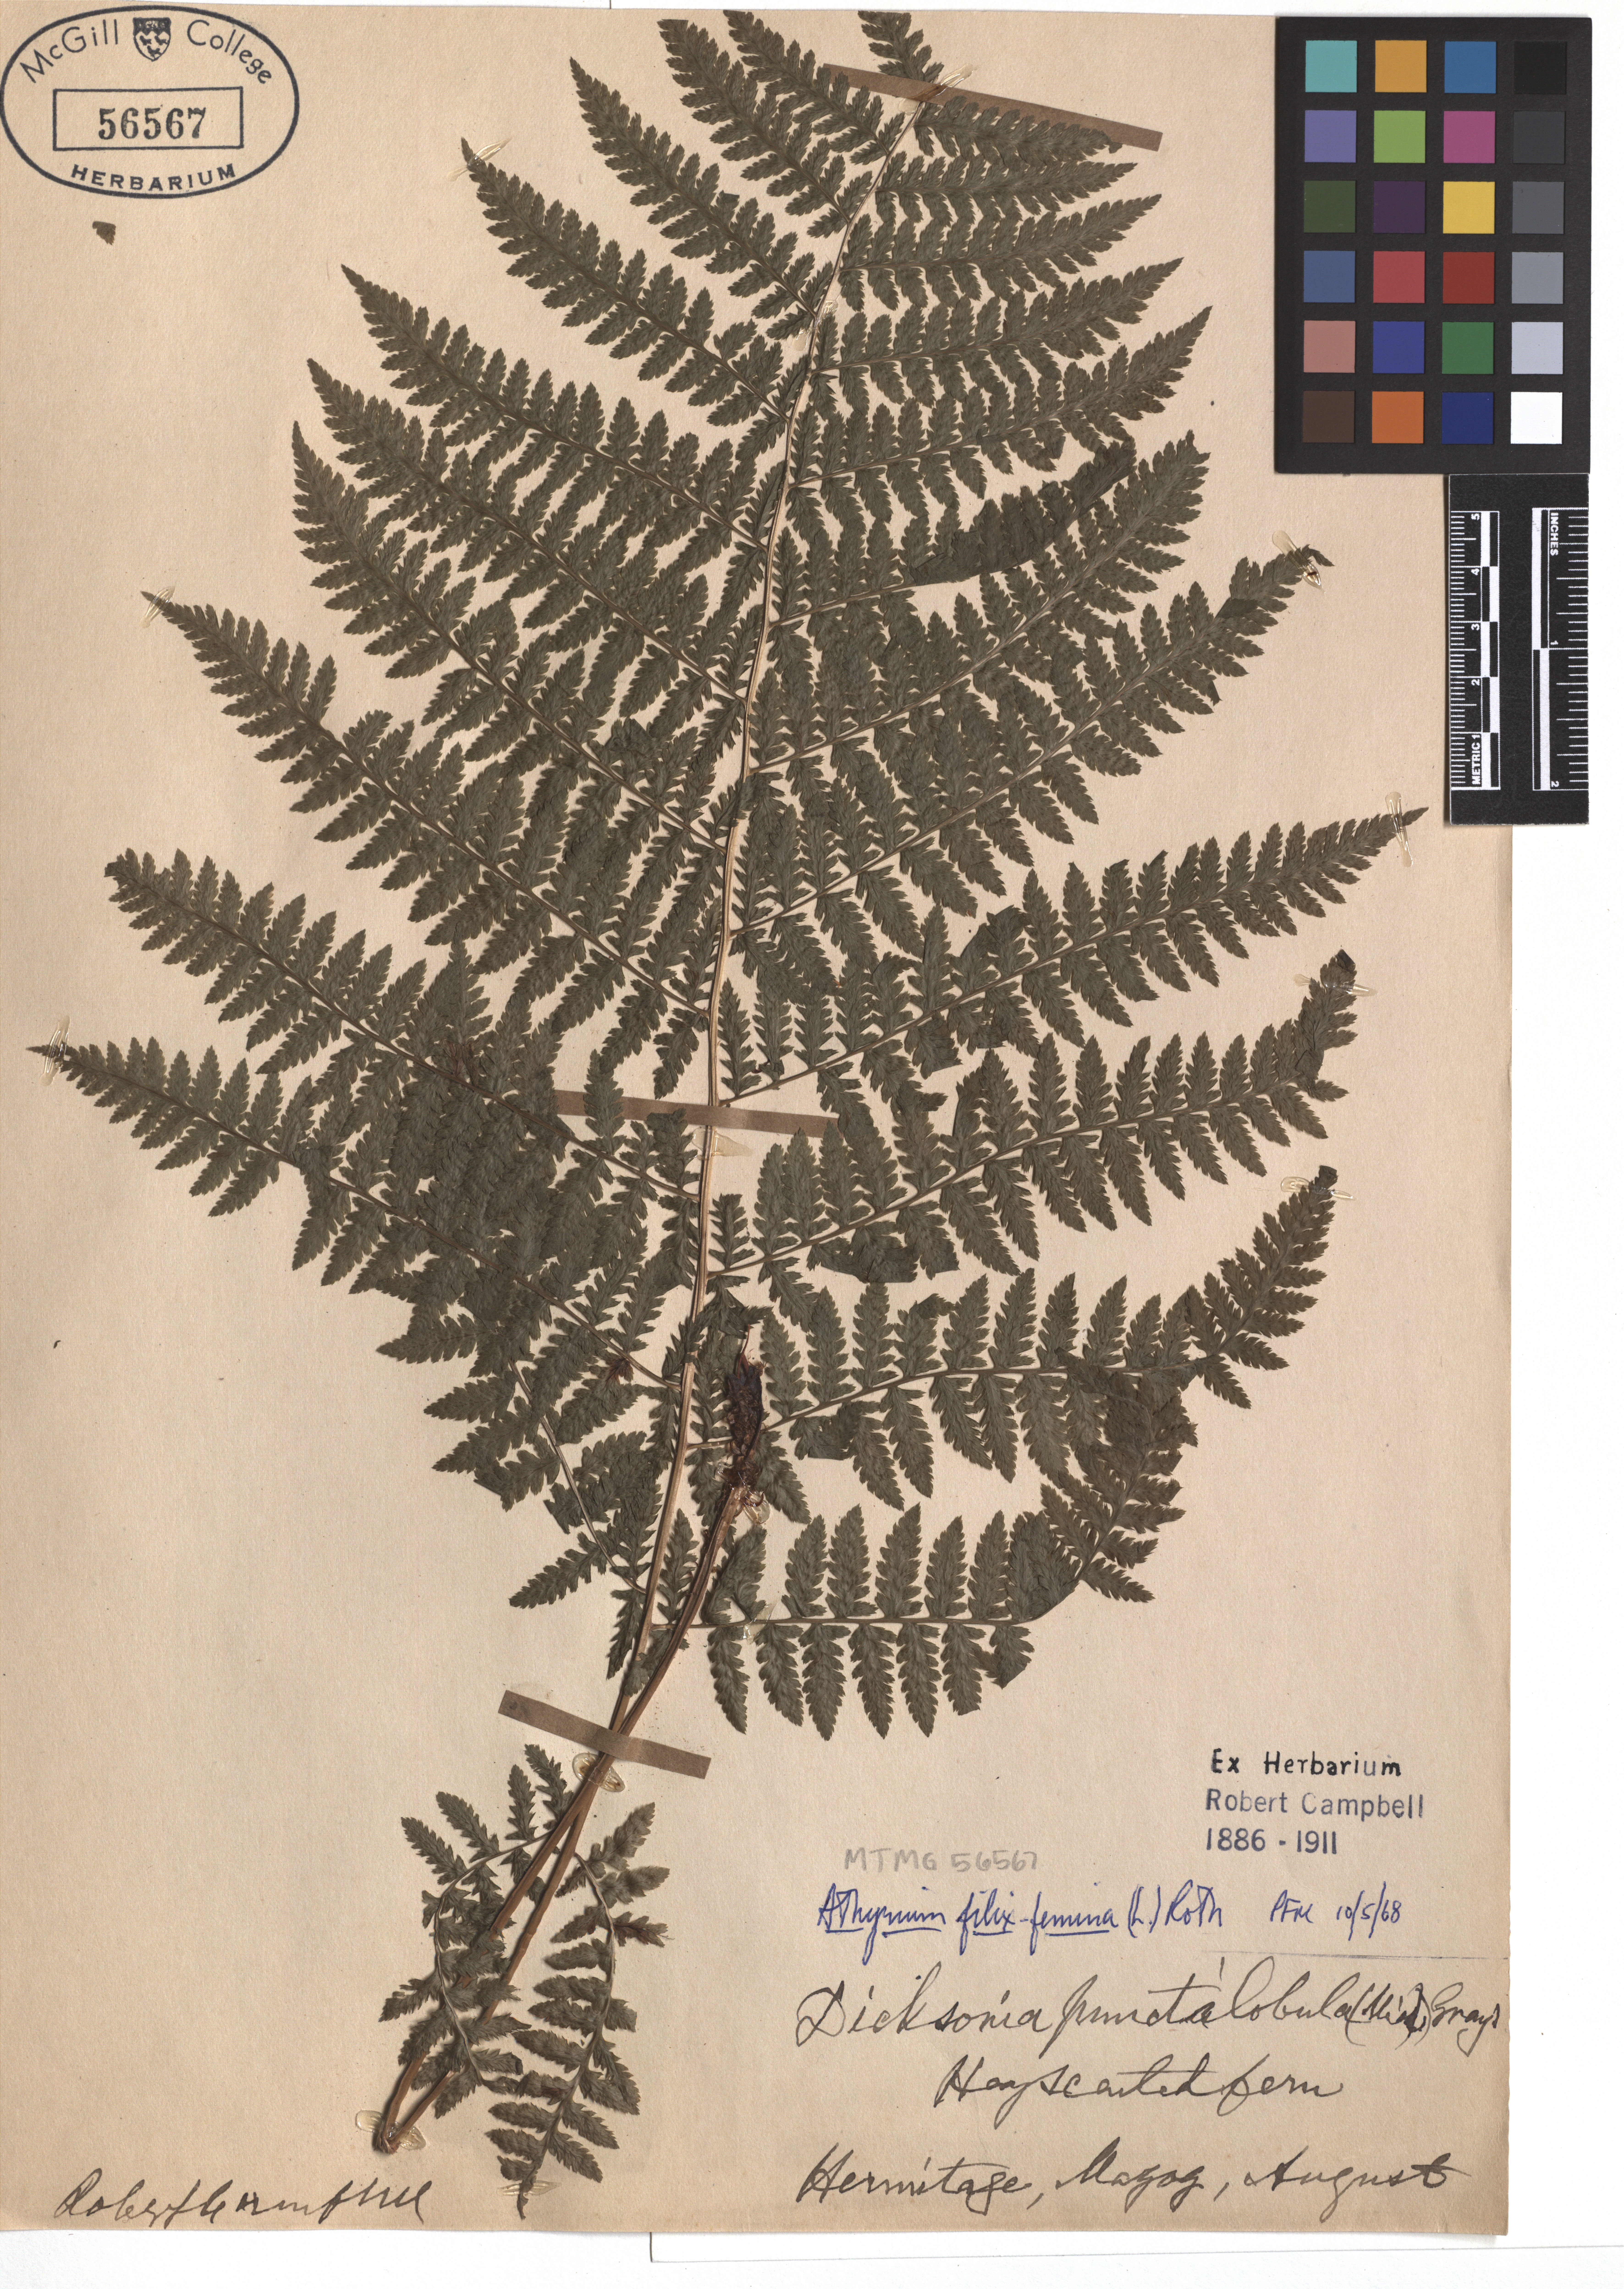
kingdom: Plantae
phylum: Tracheophyta
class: Polypodiopsida
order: Polypodiales
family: Athyriaceae
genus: Athyrium
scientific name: Athyrium filix-femina
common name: Lady fern
